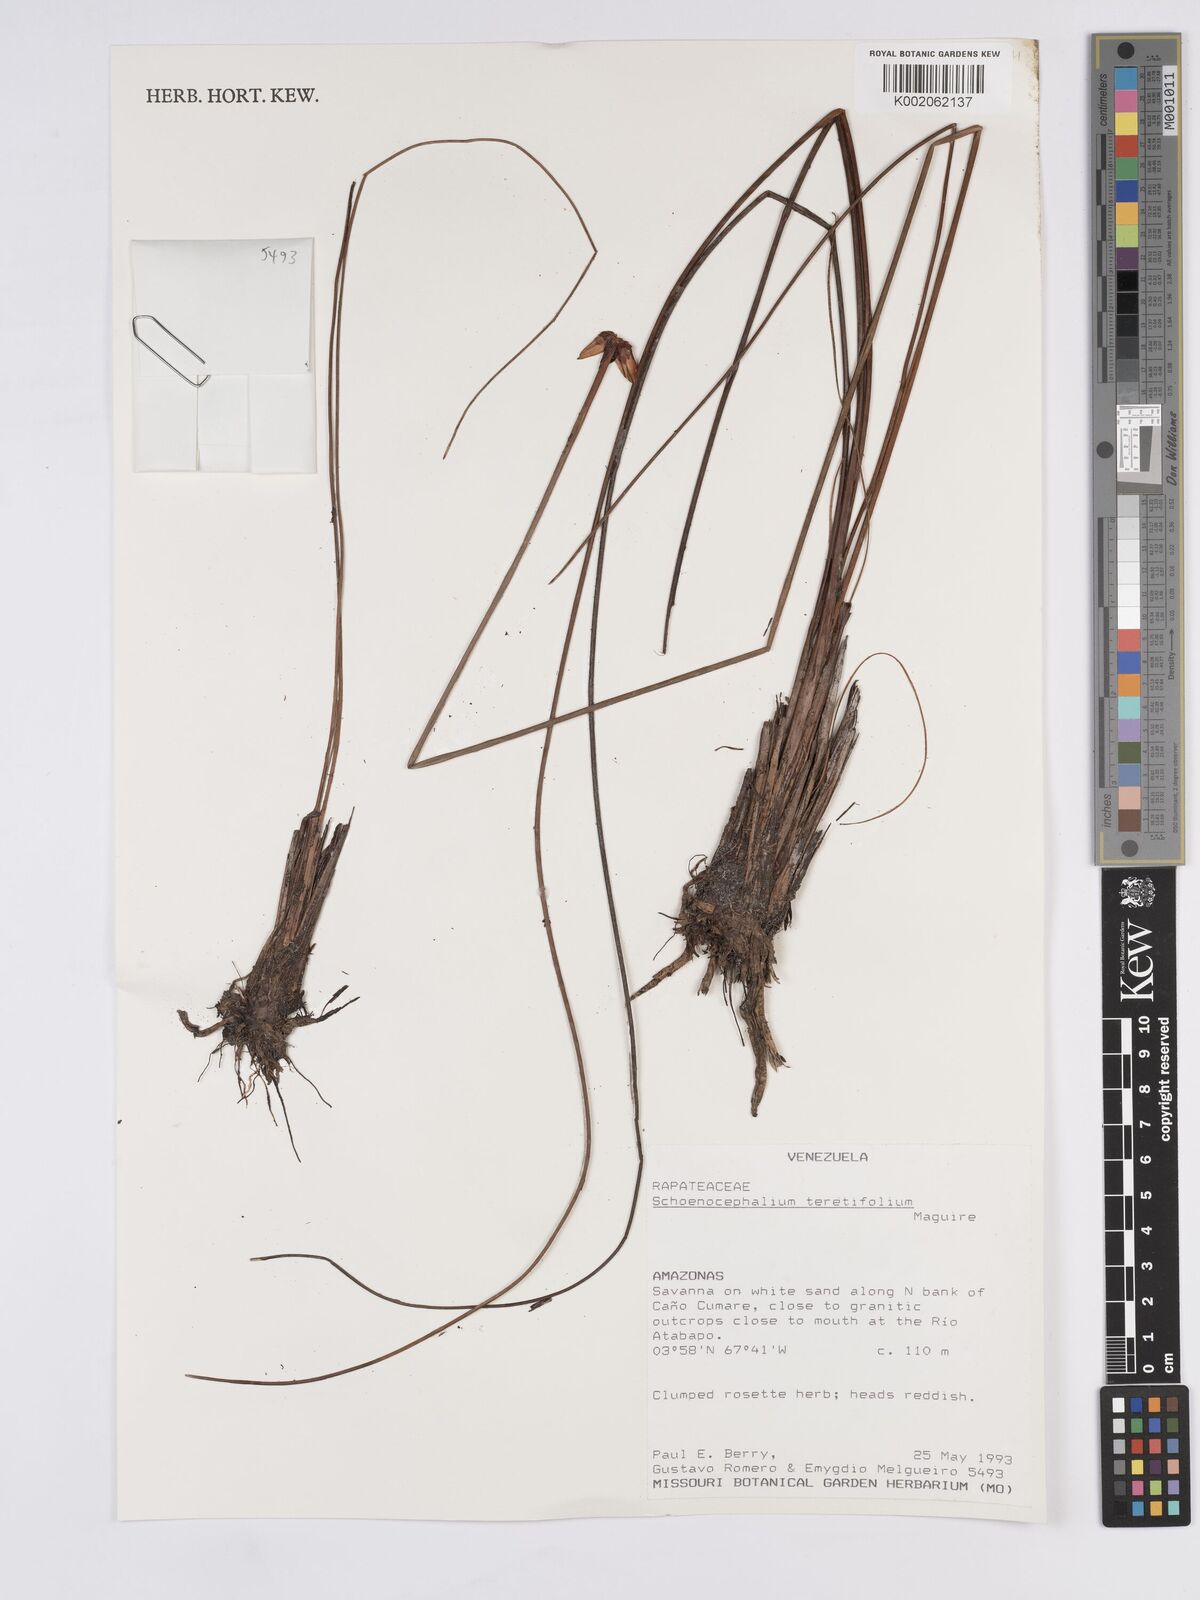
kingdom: Plantae
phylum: Tracheophyta
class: Liliopsida
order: Poales
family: Rapateaceae
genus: Schoenocephalium
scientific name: Schoenocephalium teretifolium
